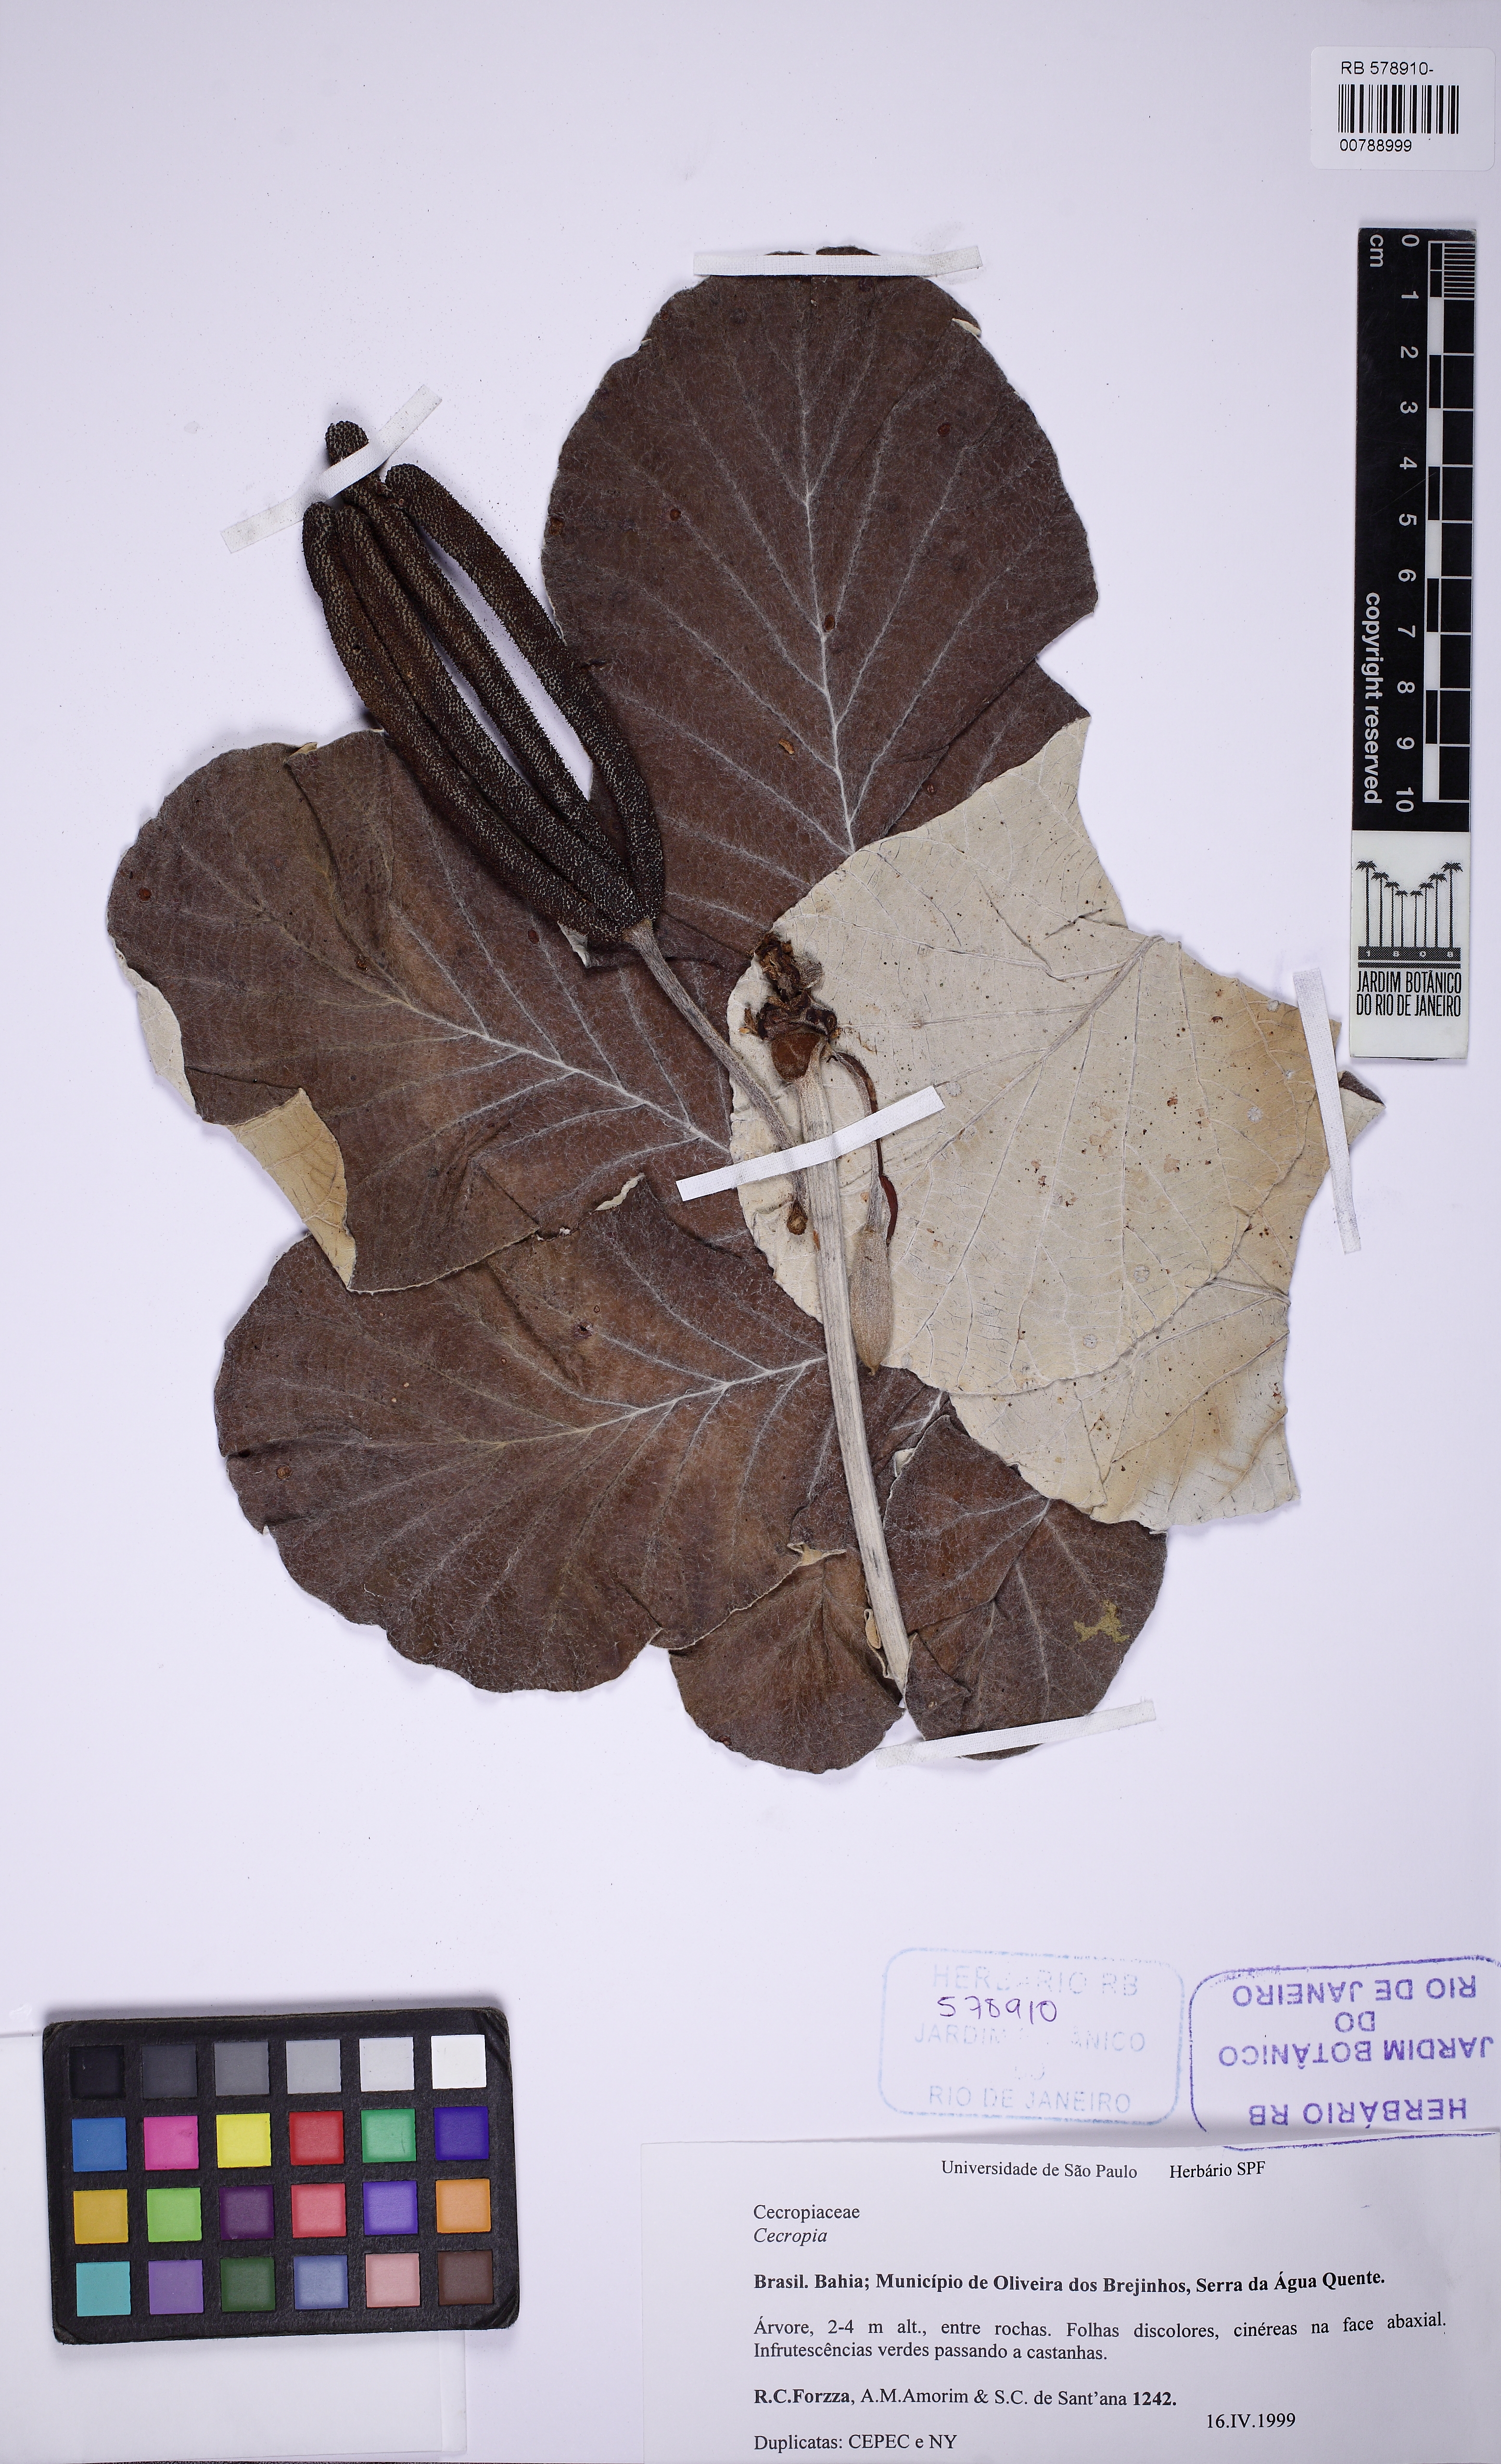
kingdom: Plantae
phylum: Tracheophyta
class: Magnoliopsida
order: Rosales
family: Urticaceae
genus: Cecropia
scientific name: Cecropia saxatilis
